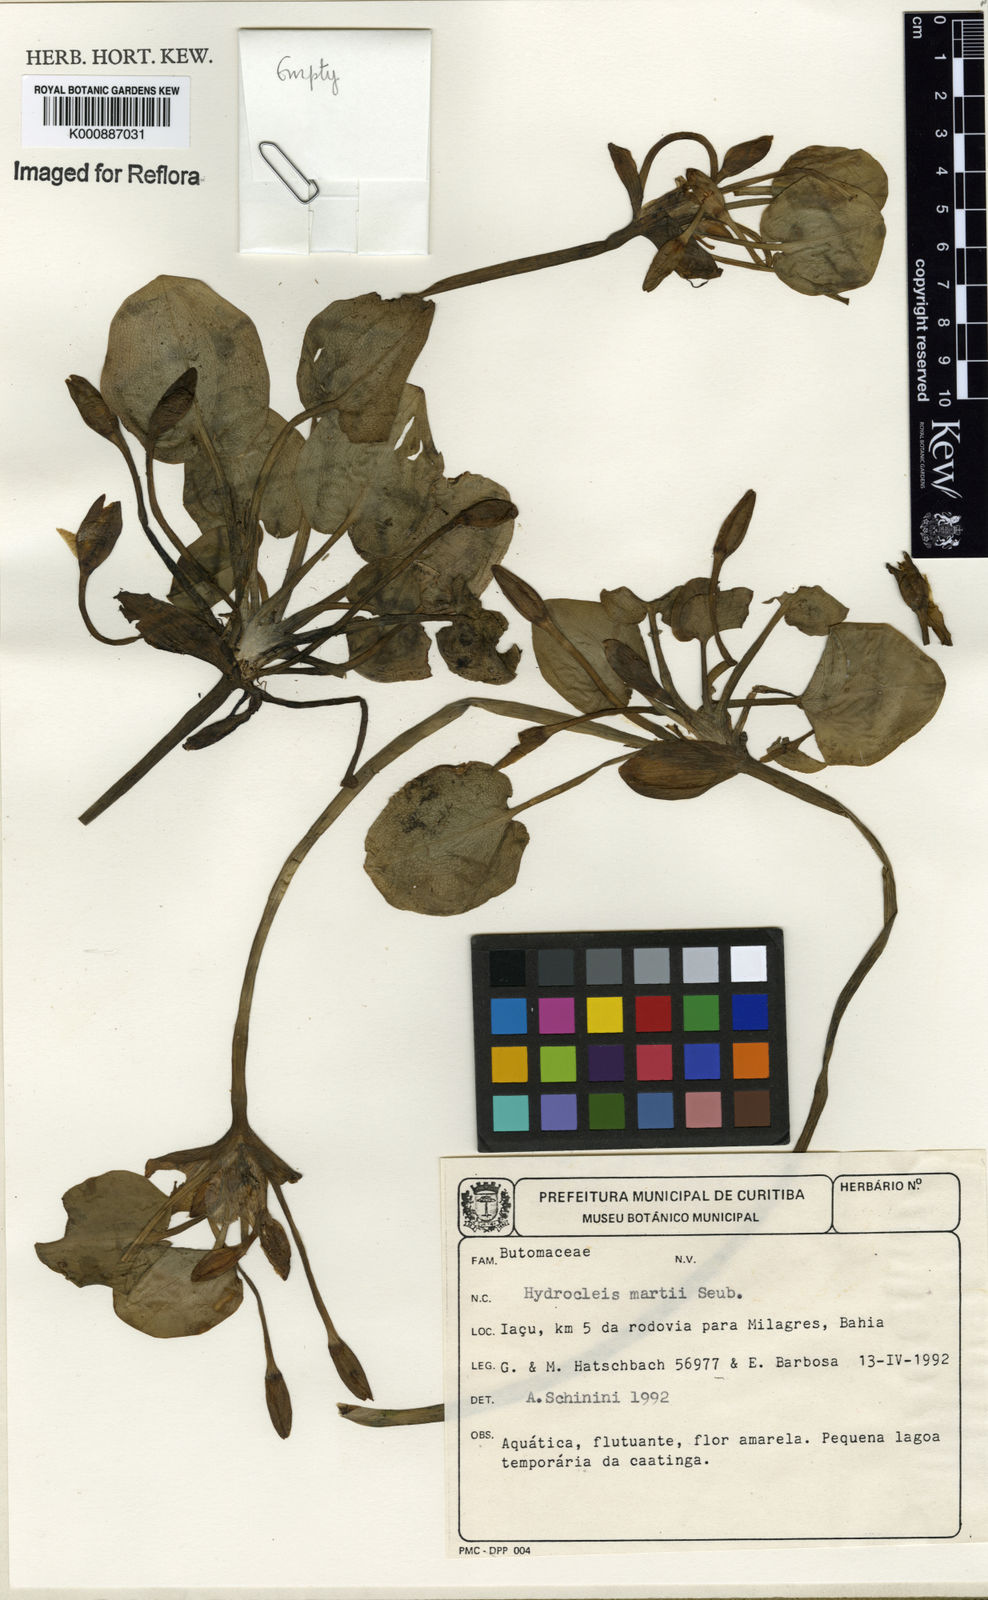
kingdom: Plantae
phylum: Tracheophyta
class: Liliopsida
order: Alismatales
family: Alismataceae
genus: Hydrocleys
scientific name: Hydrocleys martii
